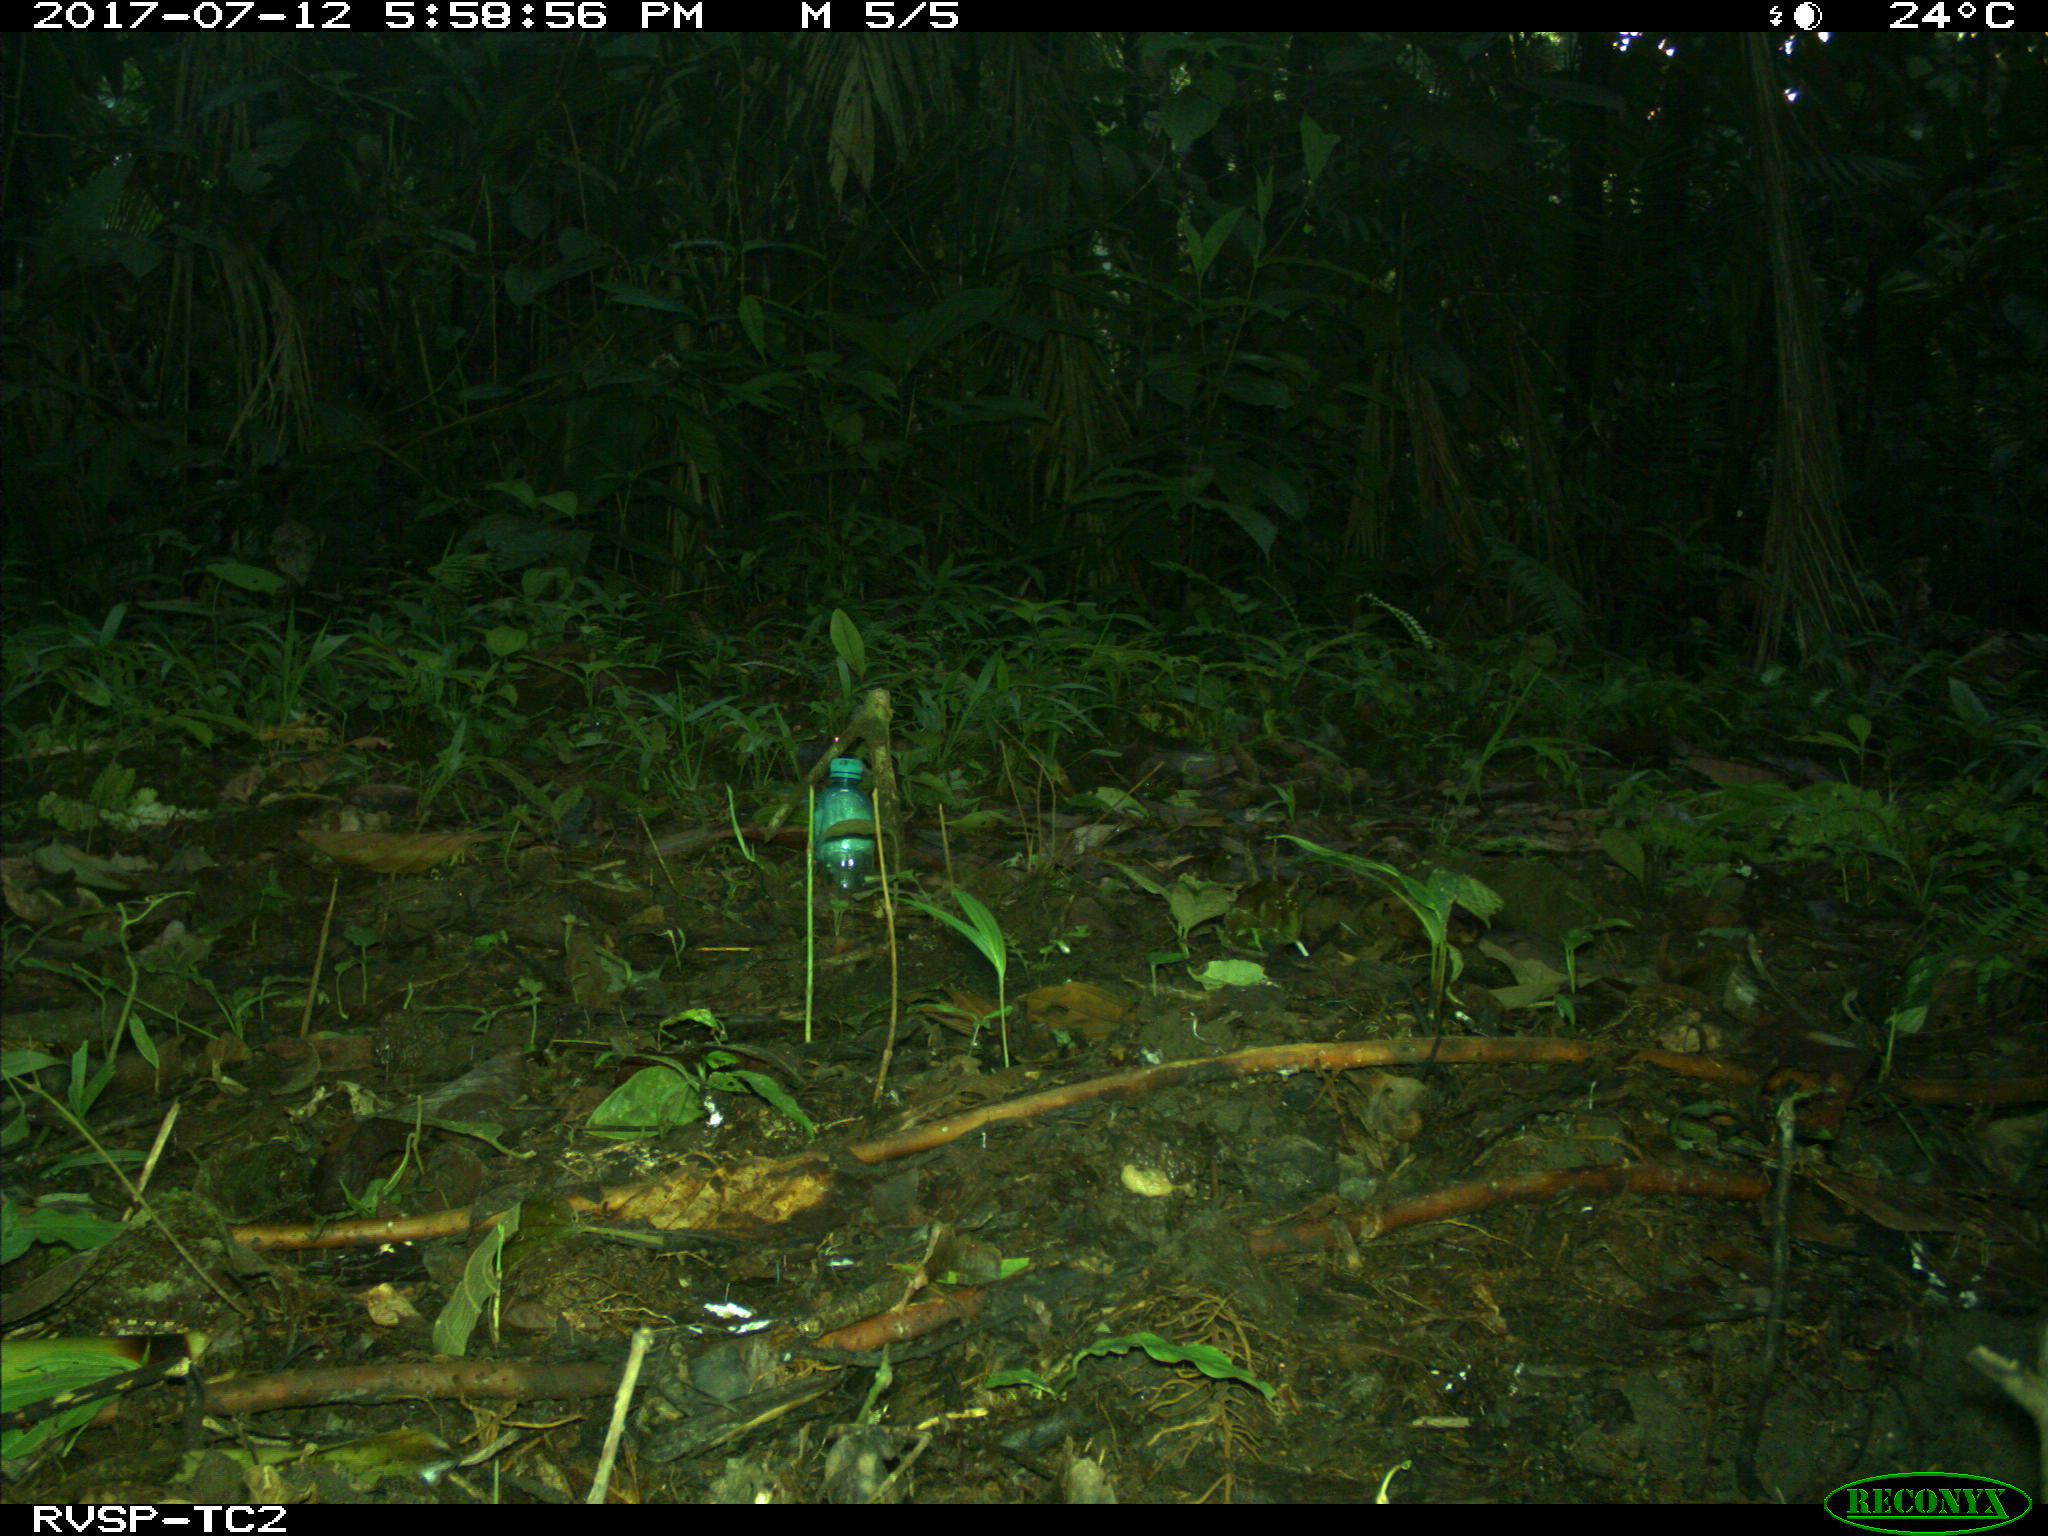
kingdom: Animalia
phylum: Chordata
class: Mammalia
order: Rodentia
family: Dasyproctidae
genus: Dasyprocta
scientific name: Dasyprocta punctata
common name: Central american agouti
